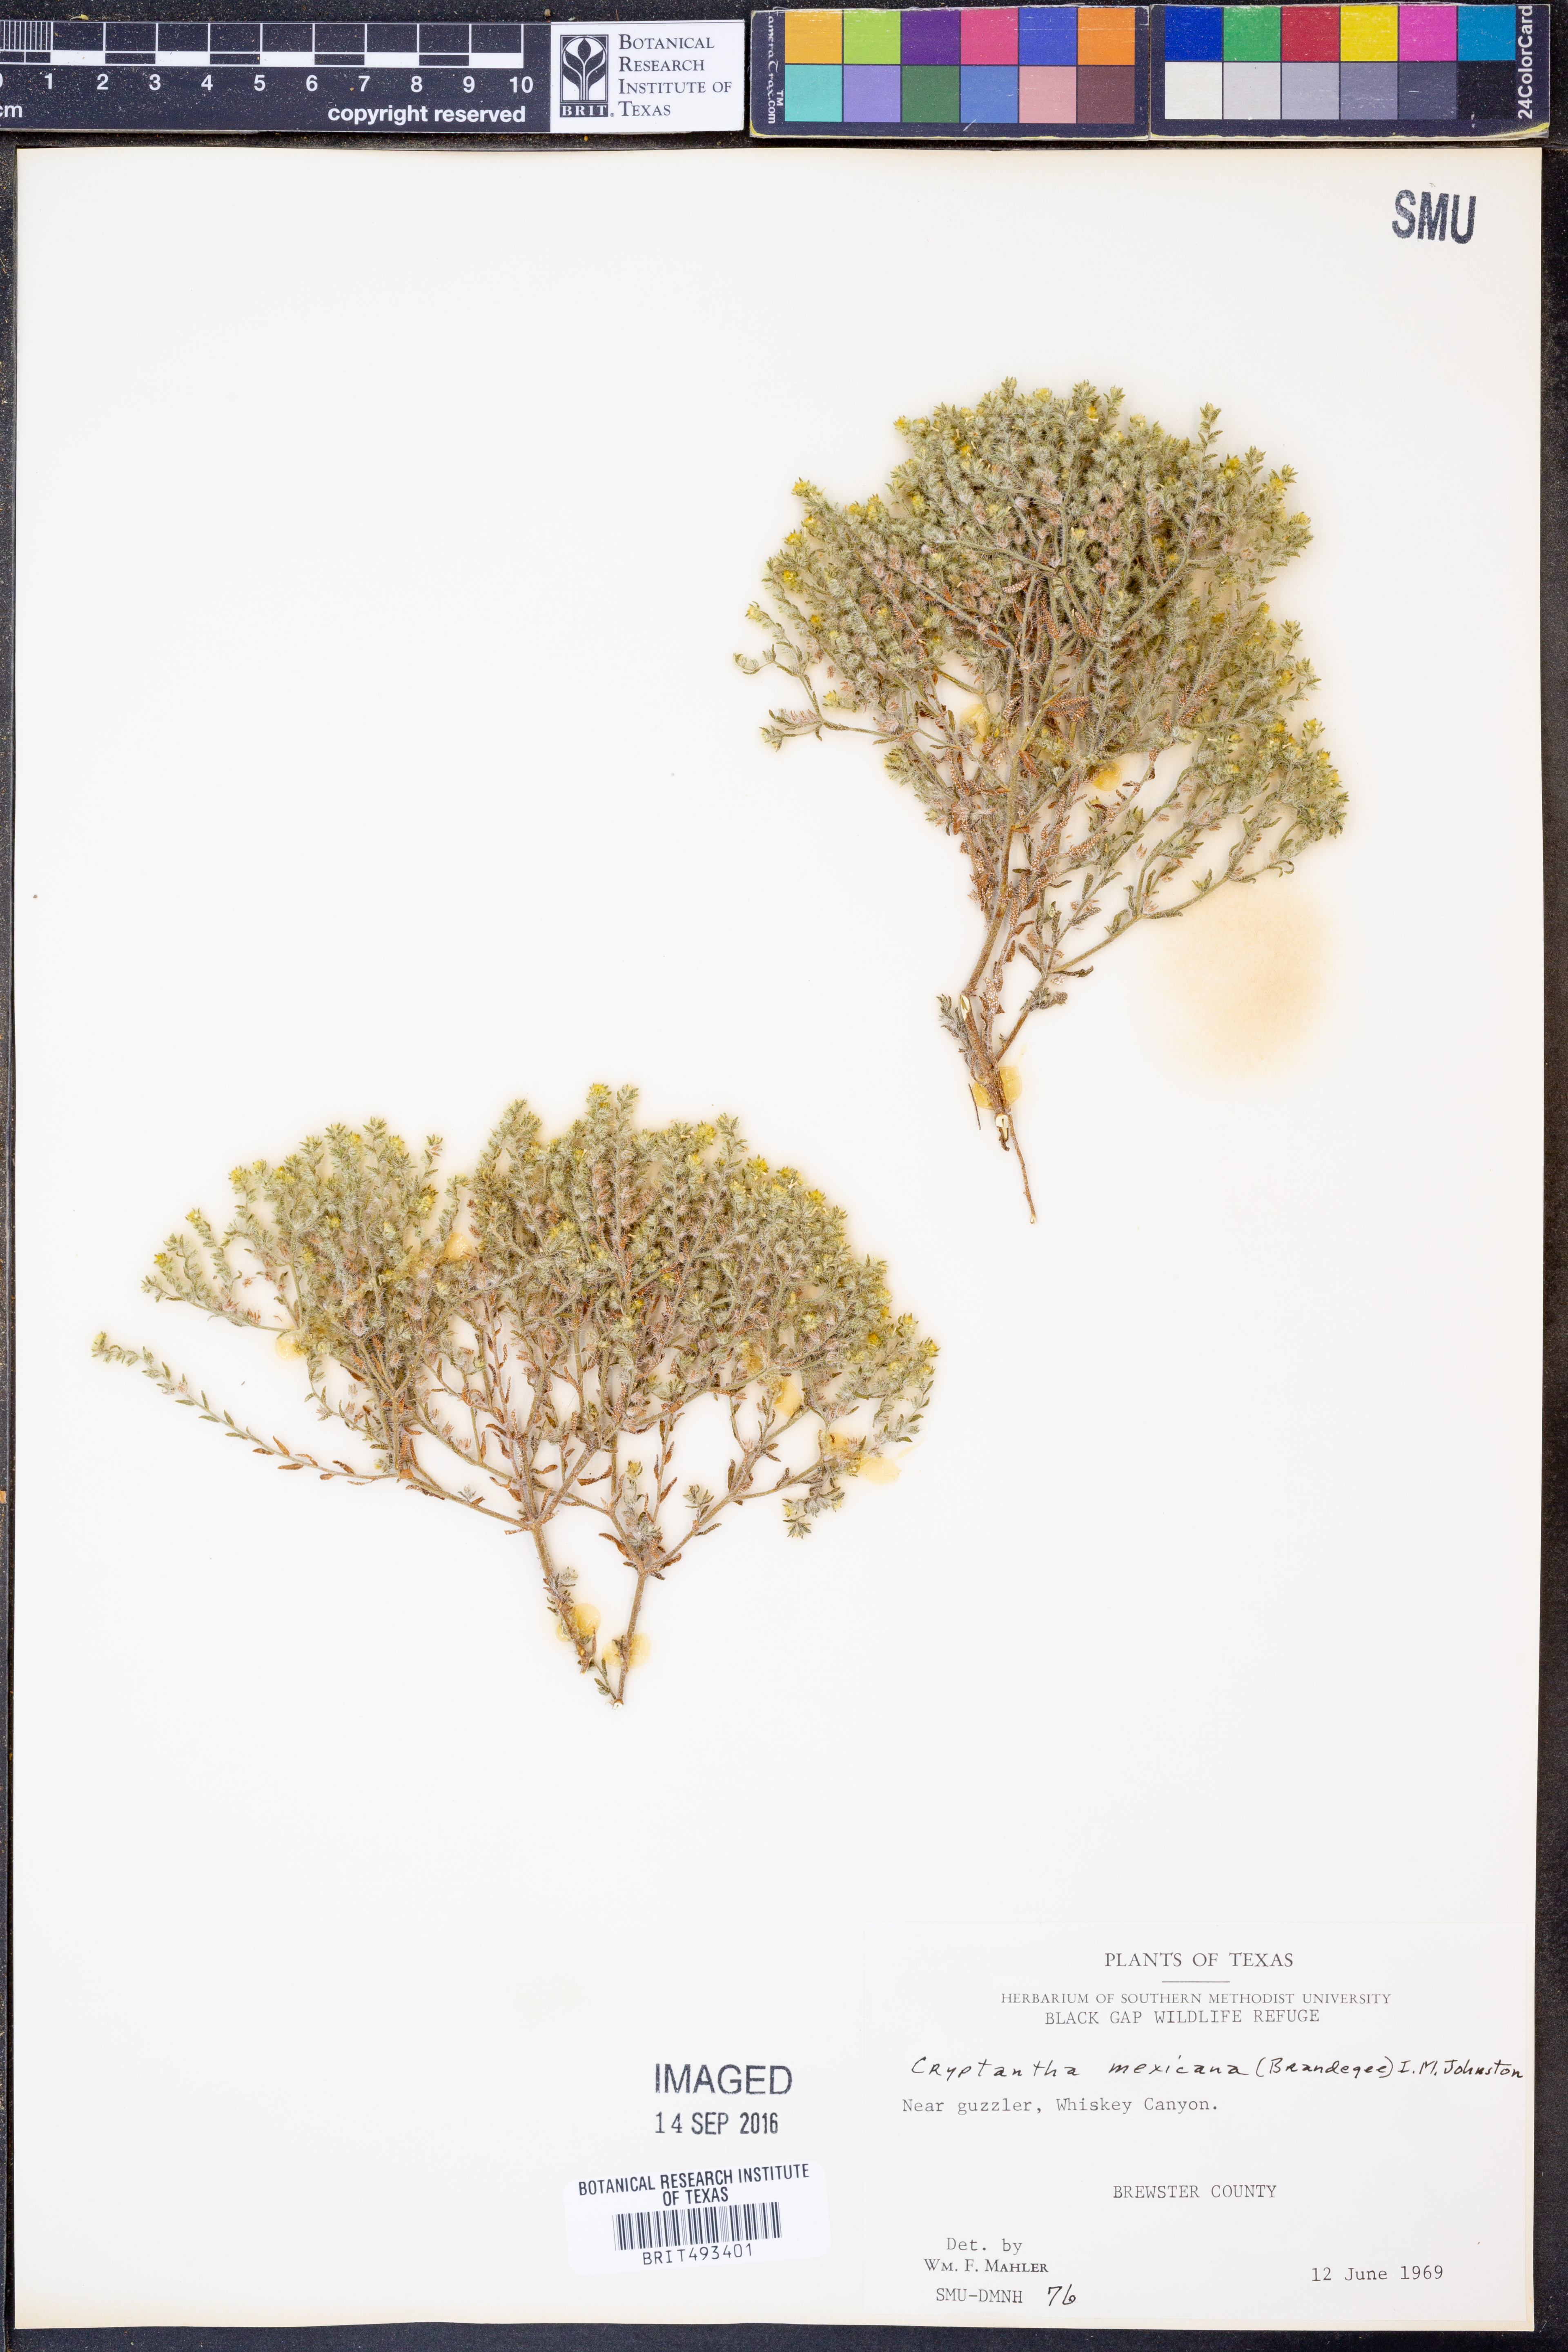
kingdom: Plantae
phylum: Tracheophyta
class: Magnoliopsida
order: Boraginales
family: Boraginaceae
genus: Johnstonella
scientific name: Johnstonella mexicana
